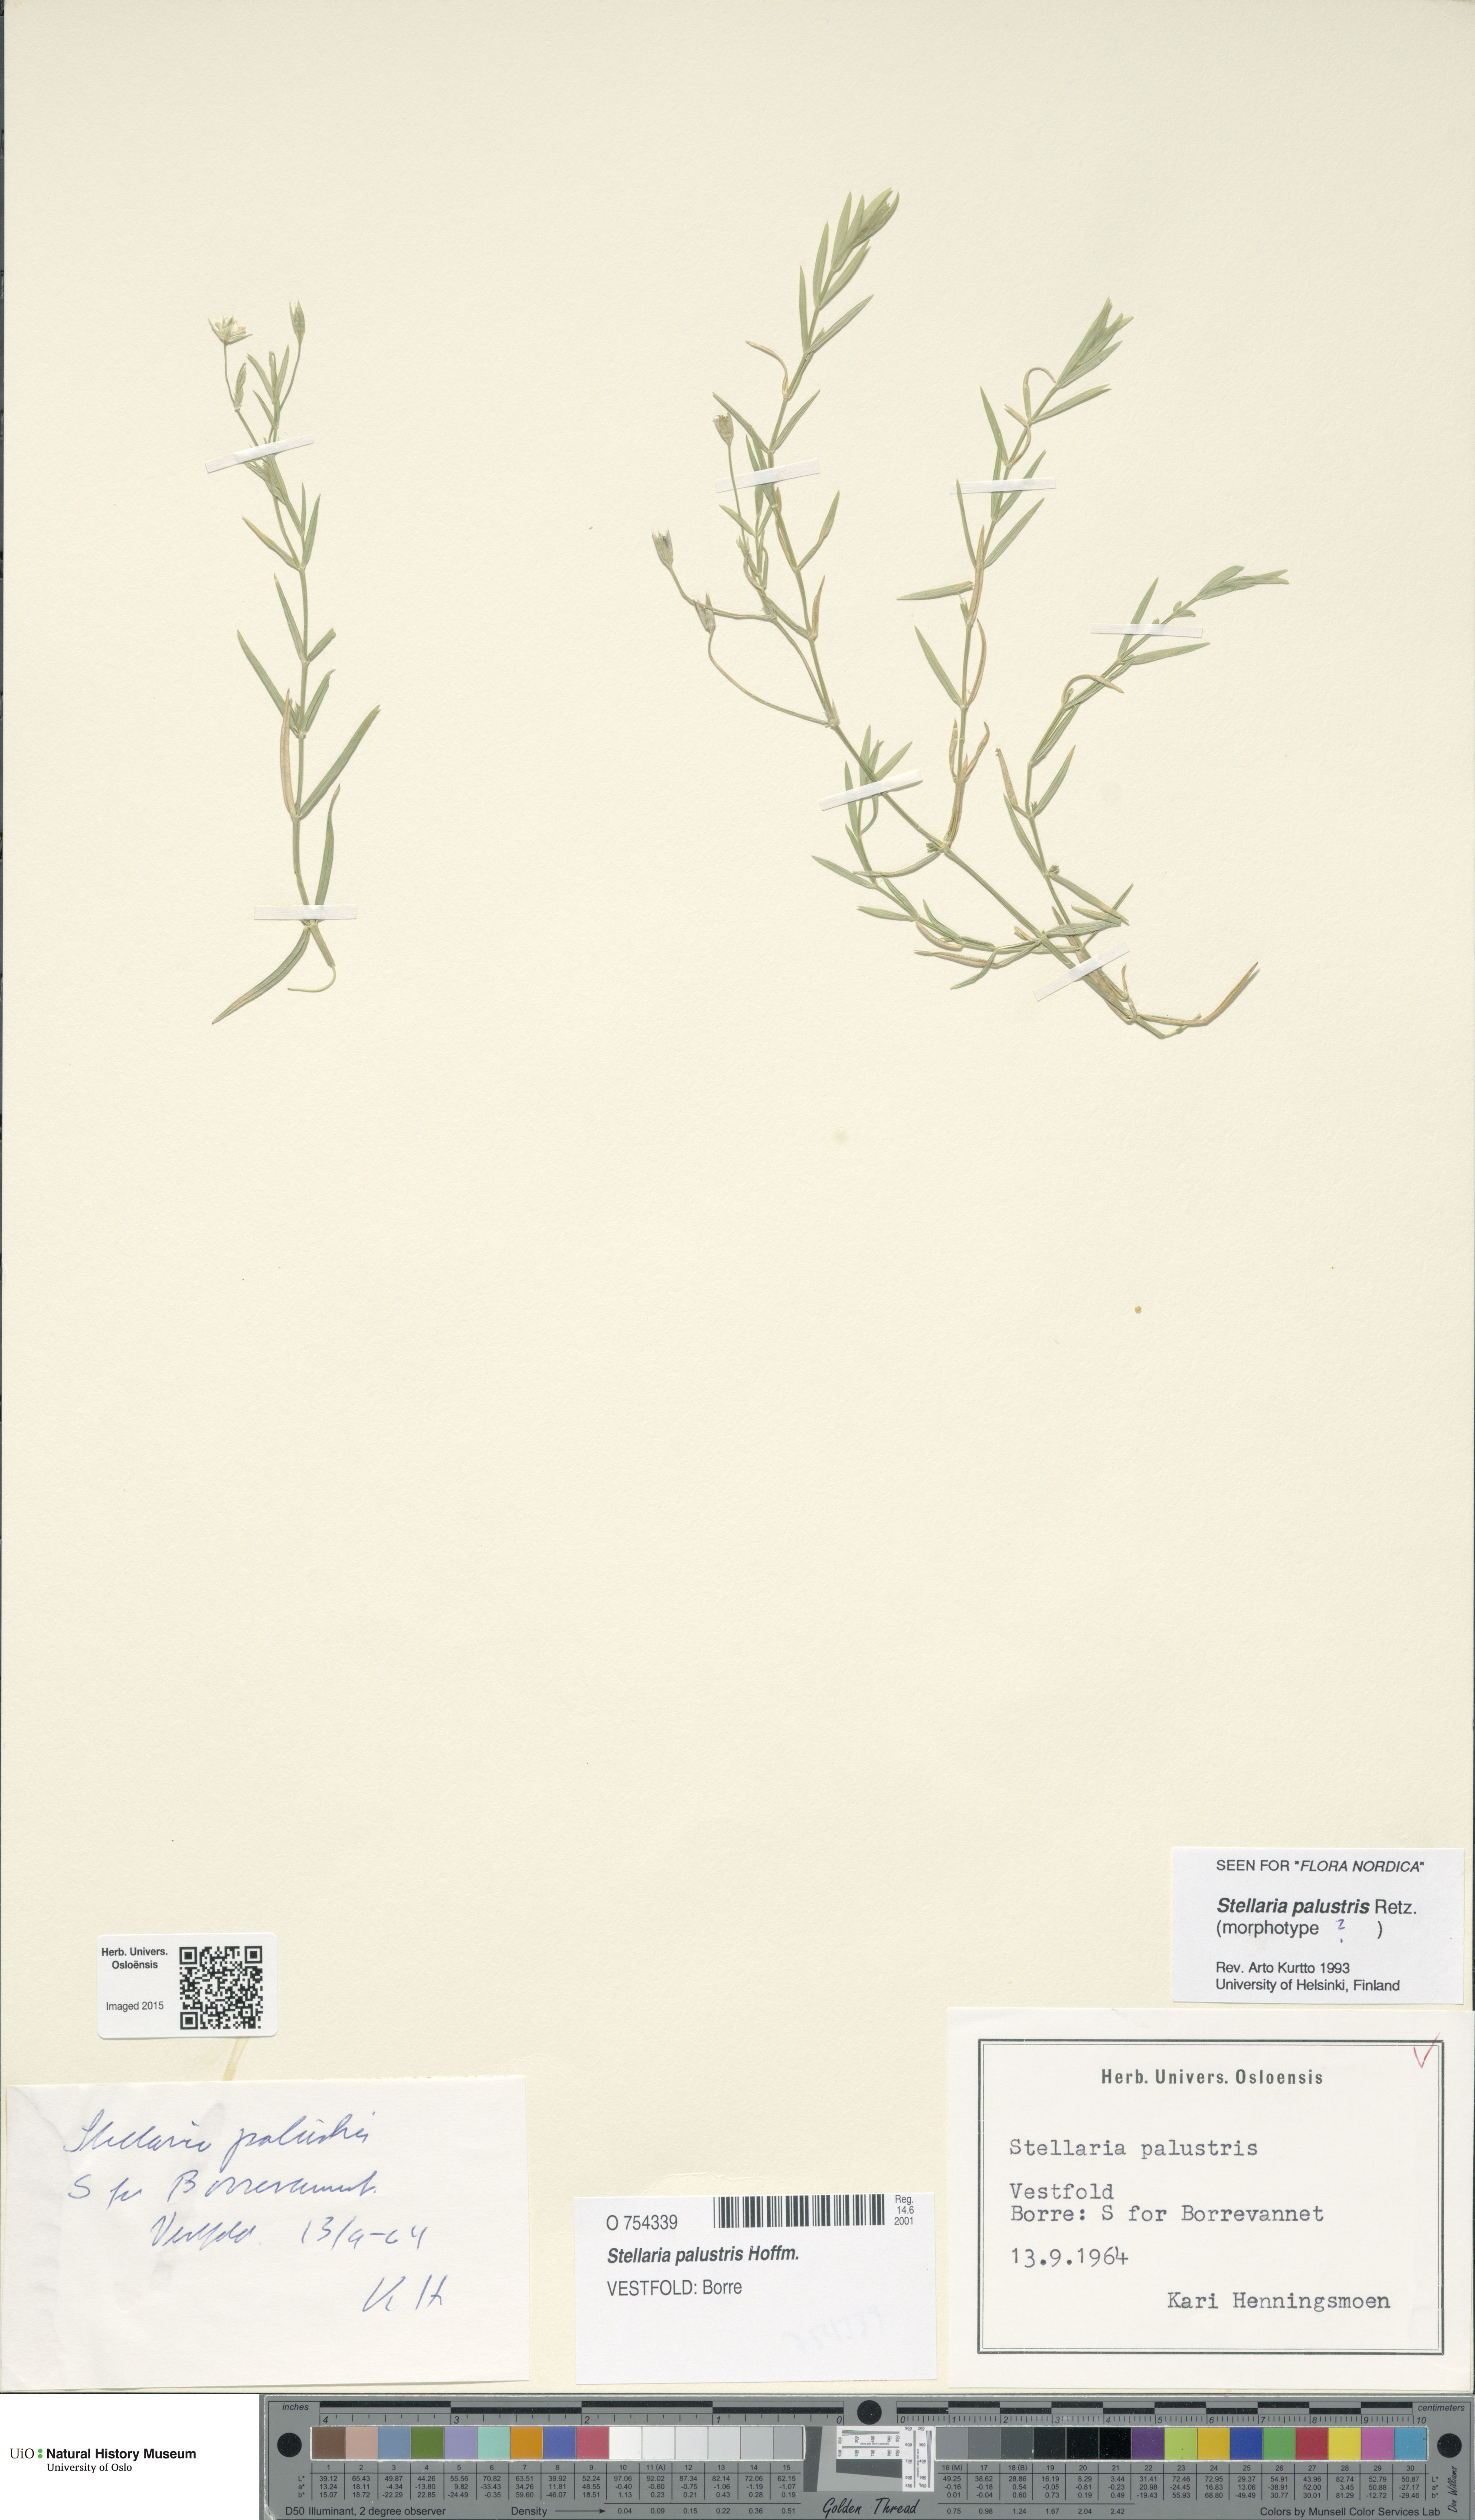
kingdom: Plantae
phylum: Tracheophyta
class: Magnoliopsida
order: Caryophyllales
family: Caryophyllaceae
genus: Stellaria
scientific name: Stellaria palustris
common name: Marsh stitchwort
